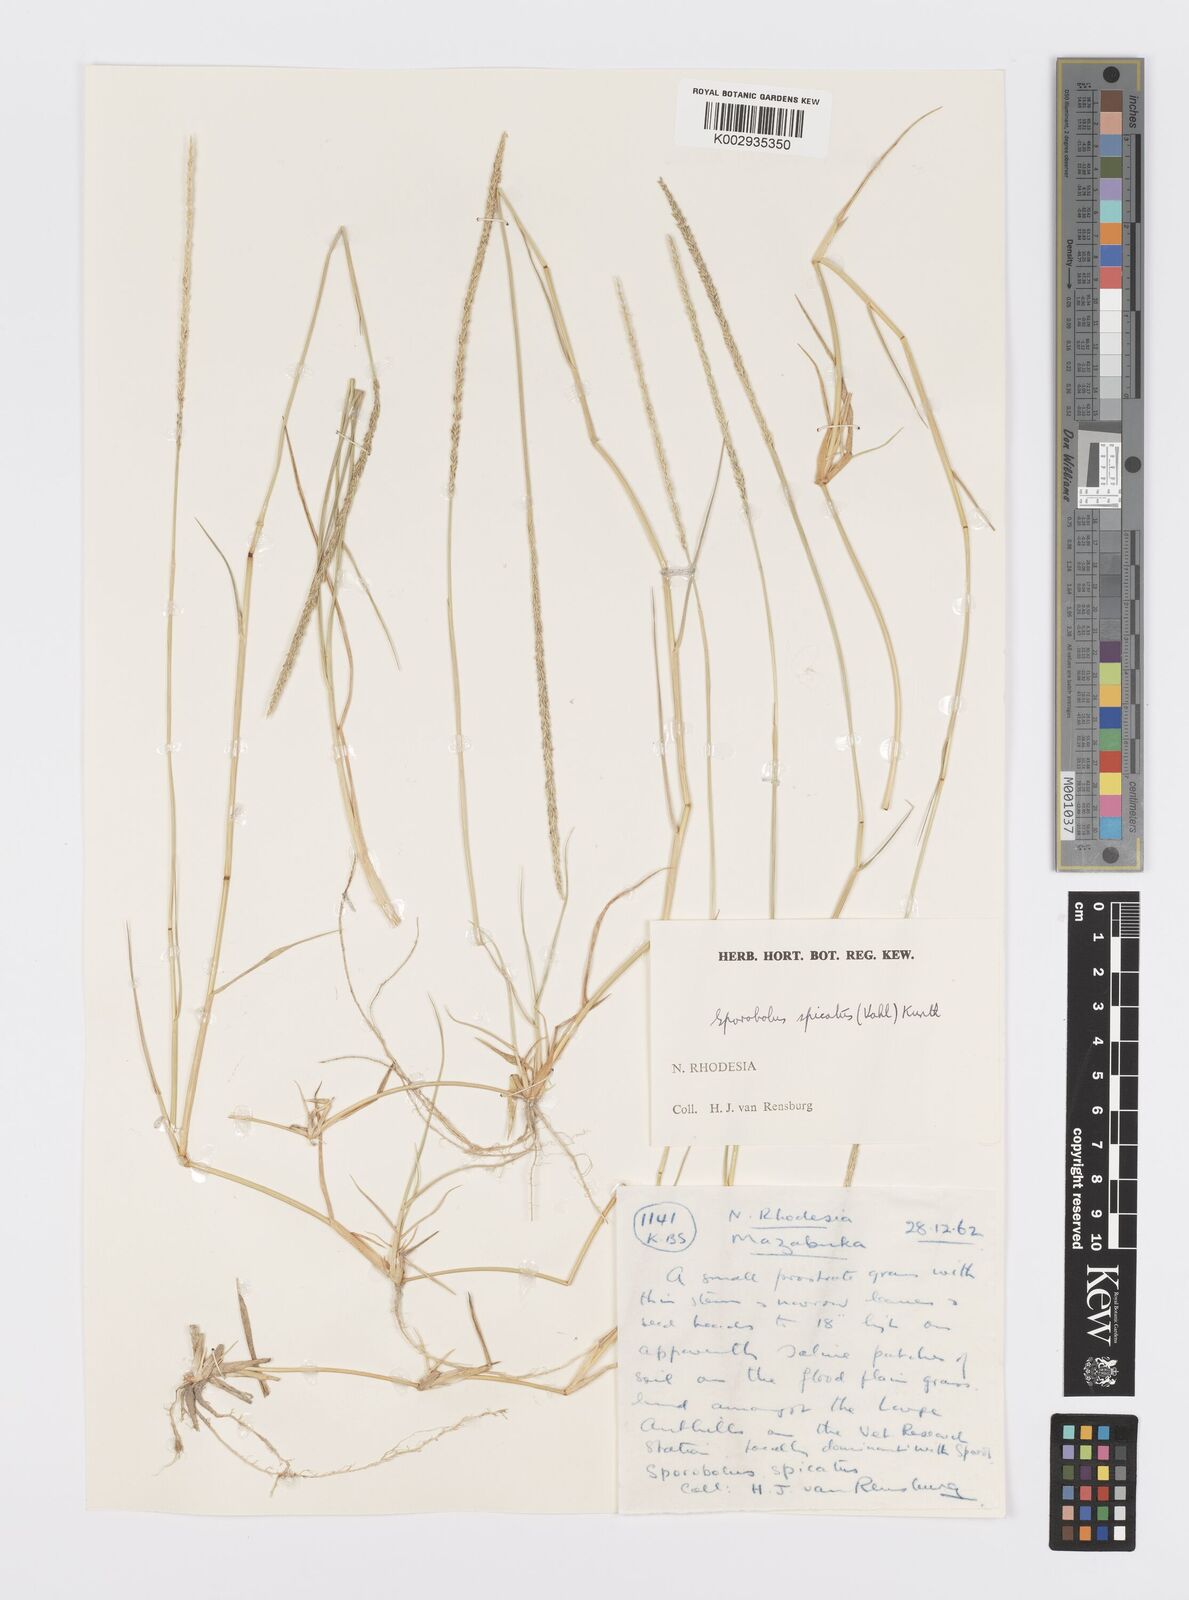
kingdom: Plantae
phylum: Tracheophyta
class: Liliopsida
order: Poales
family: Poaceae
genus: Sporobolus
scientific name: Sporobolus spicatus
